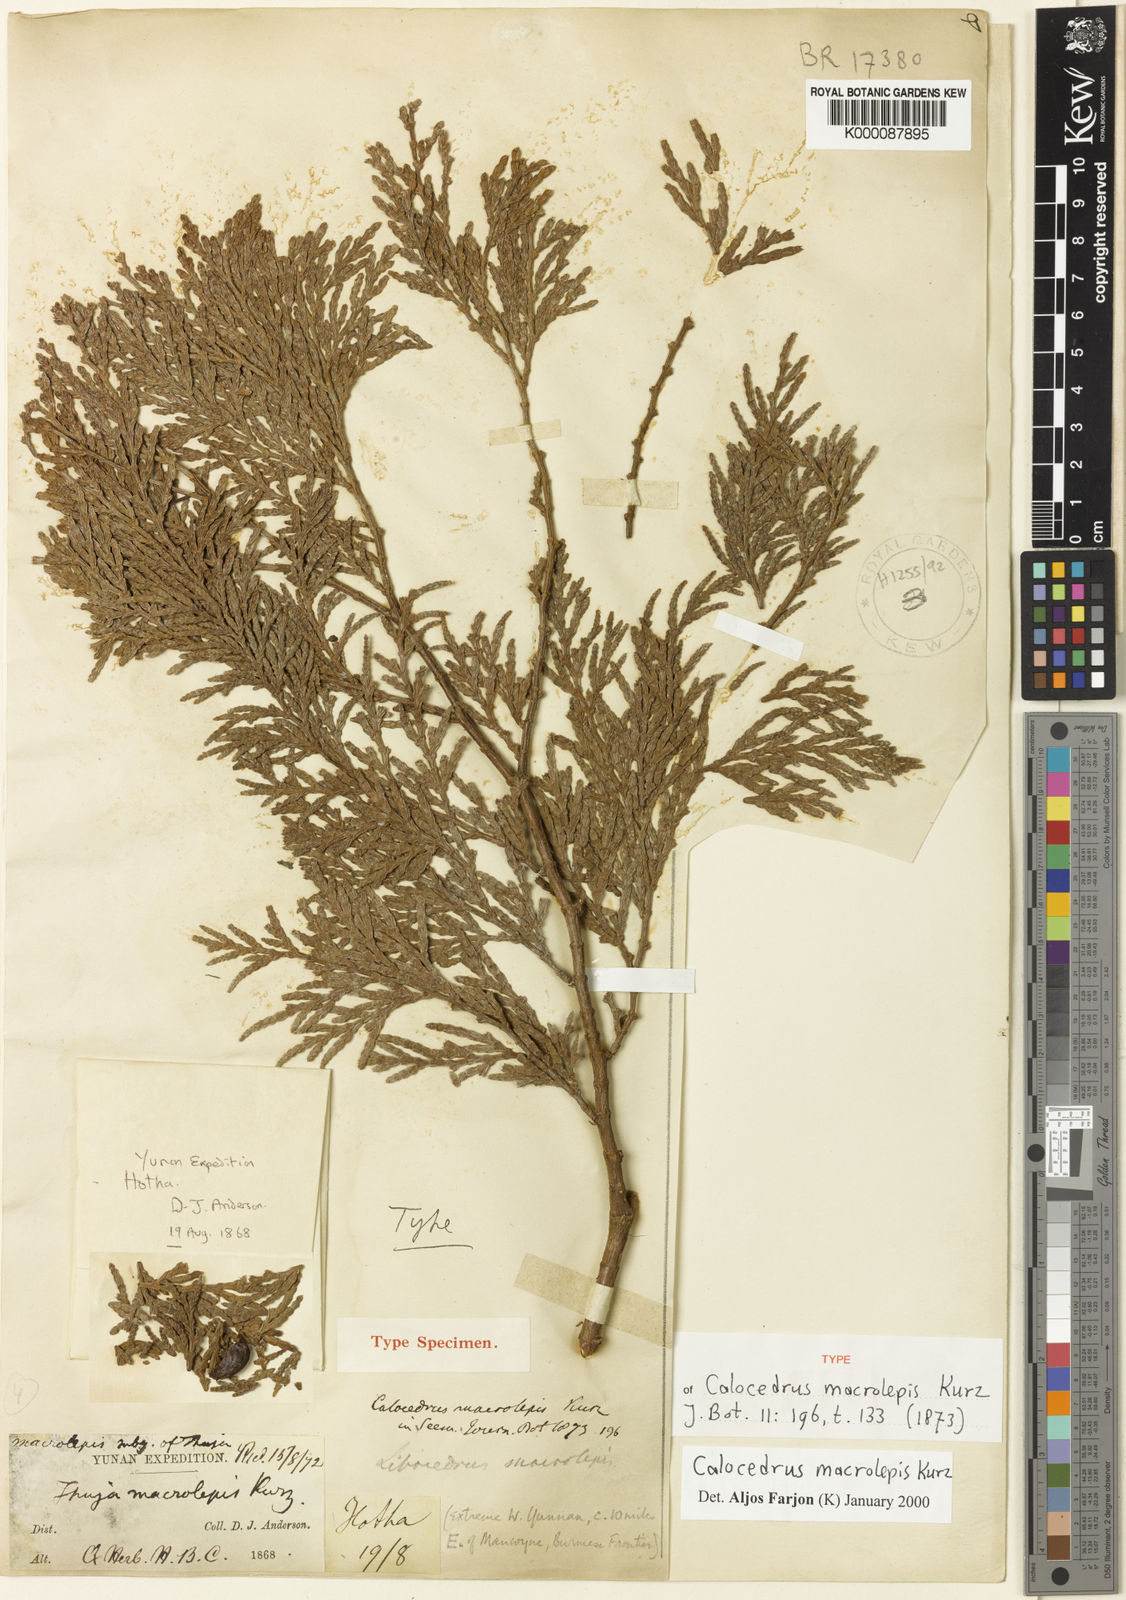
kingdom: Plantae
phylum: Tracheophyta
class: Pinopsida
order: Pinales
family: Cupressaceae
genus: Calocedrus
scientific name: Calocedrus macrolepis
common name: Chinese incense-cedar
